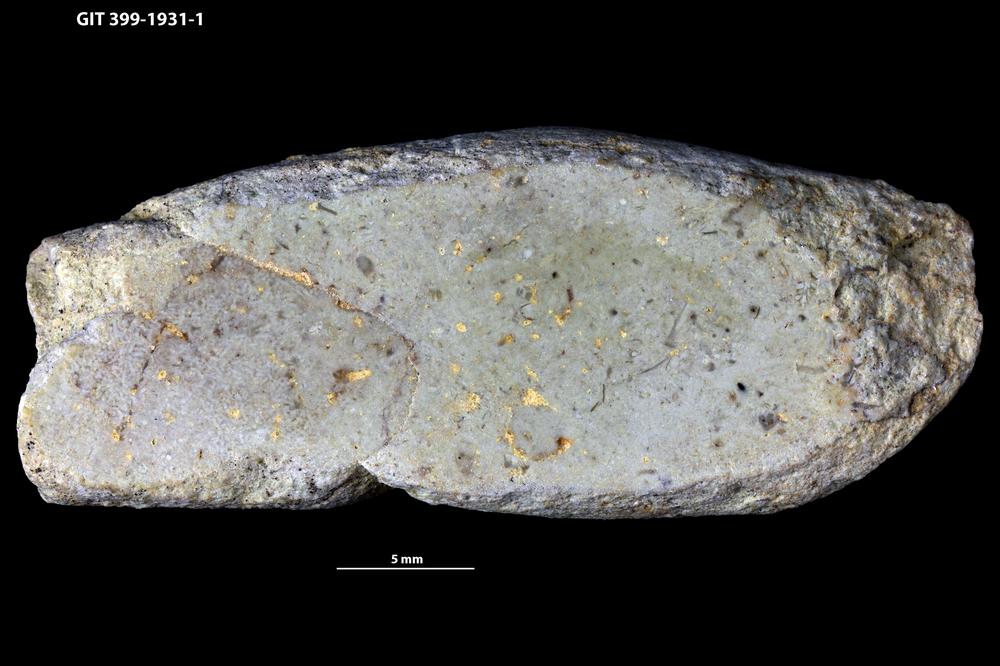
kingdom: Animalia
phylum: Mollusca
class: Gastropoda
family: Subulitidae
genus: Subulites
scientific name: Subulites amphora
